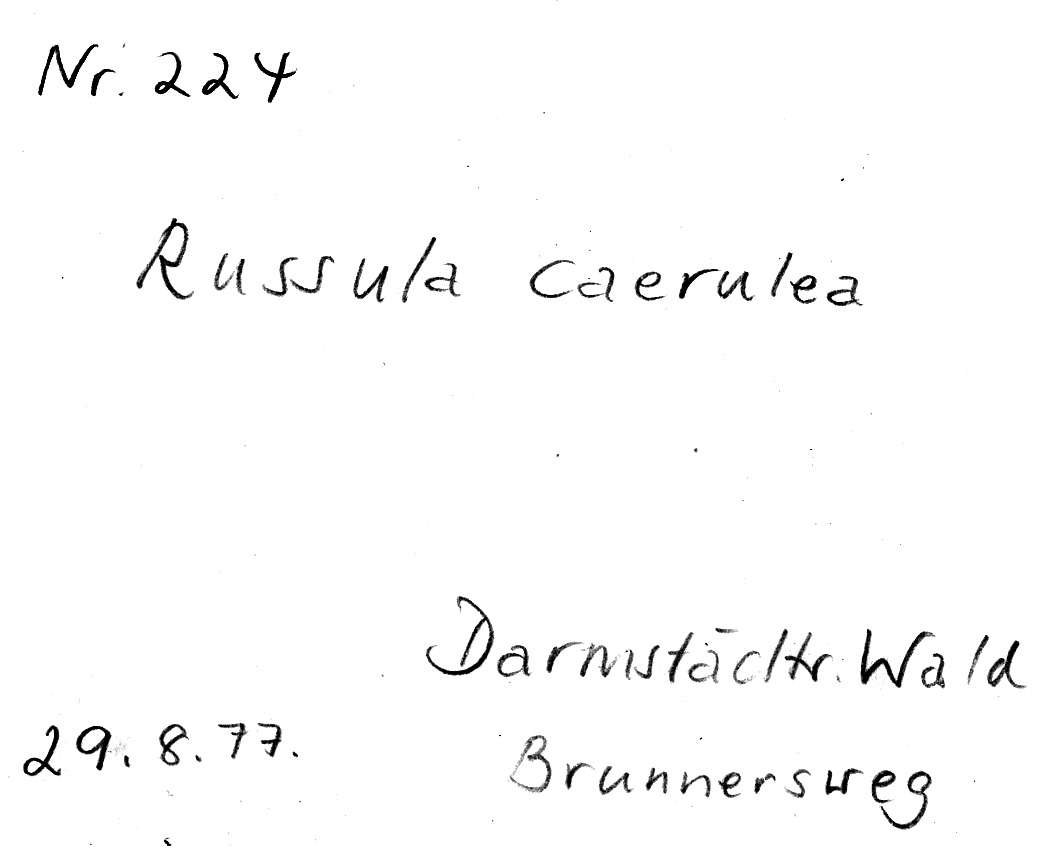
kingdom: Fungi
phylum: Basidiomycota
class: Agaricomycetes
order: Russulales
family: Russulaceae
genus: Russula
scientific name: Russula caerulea
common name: Humpback brittlegill
